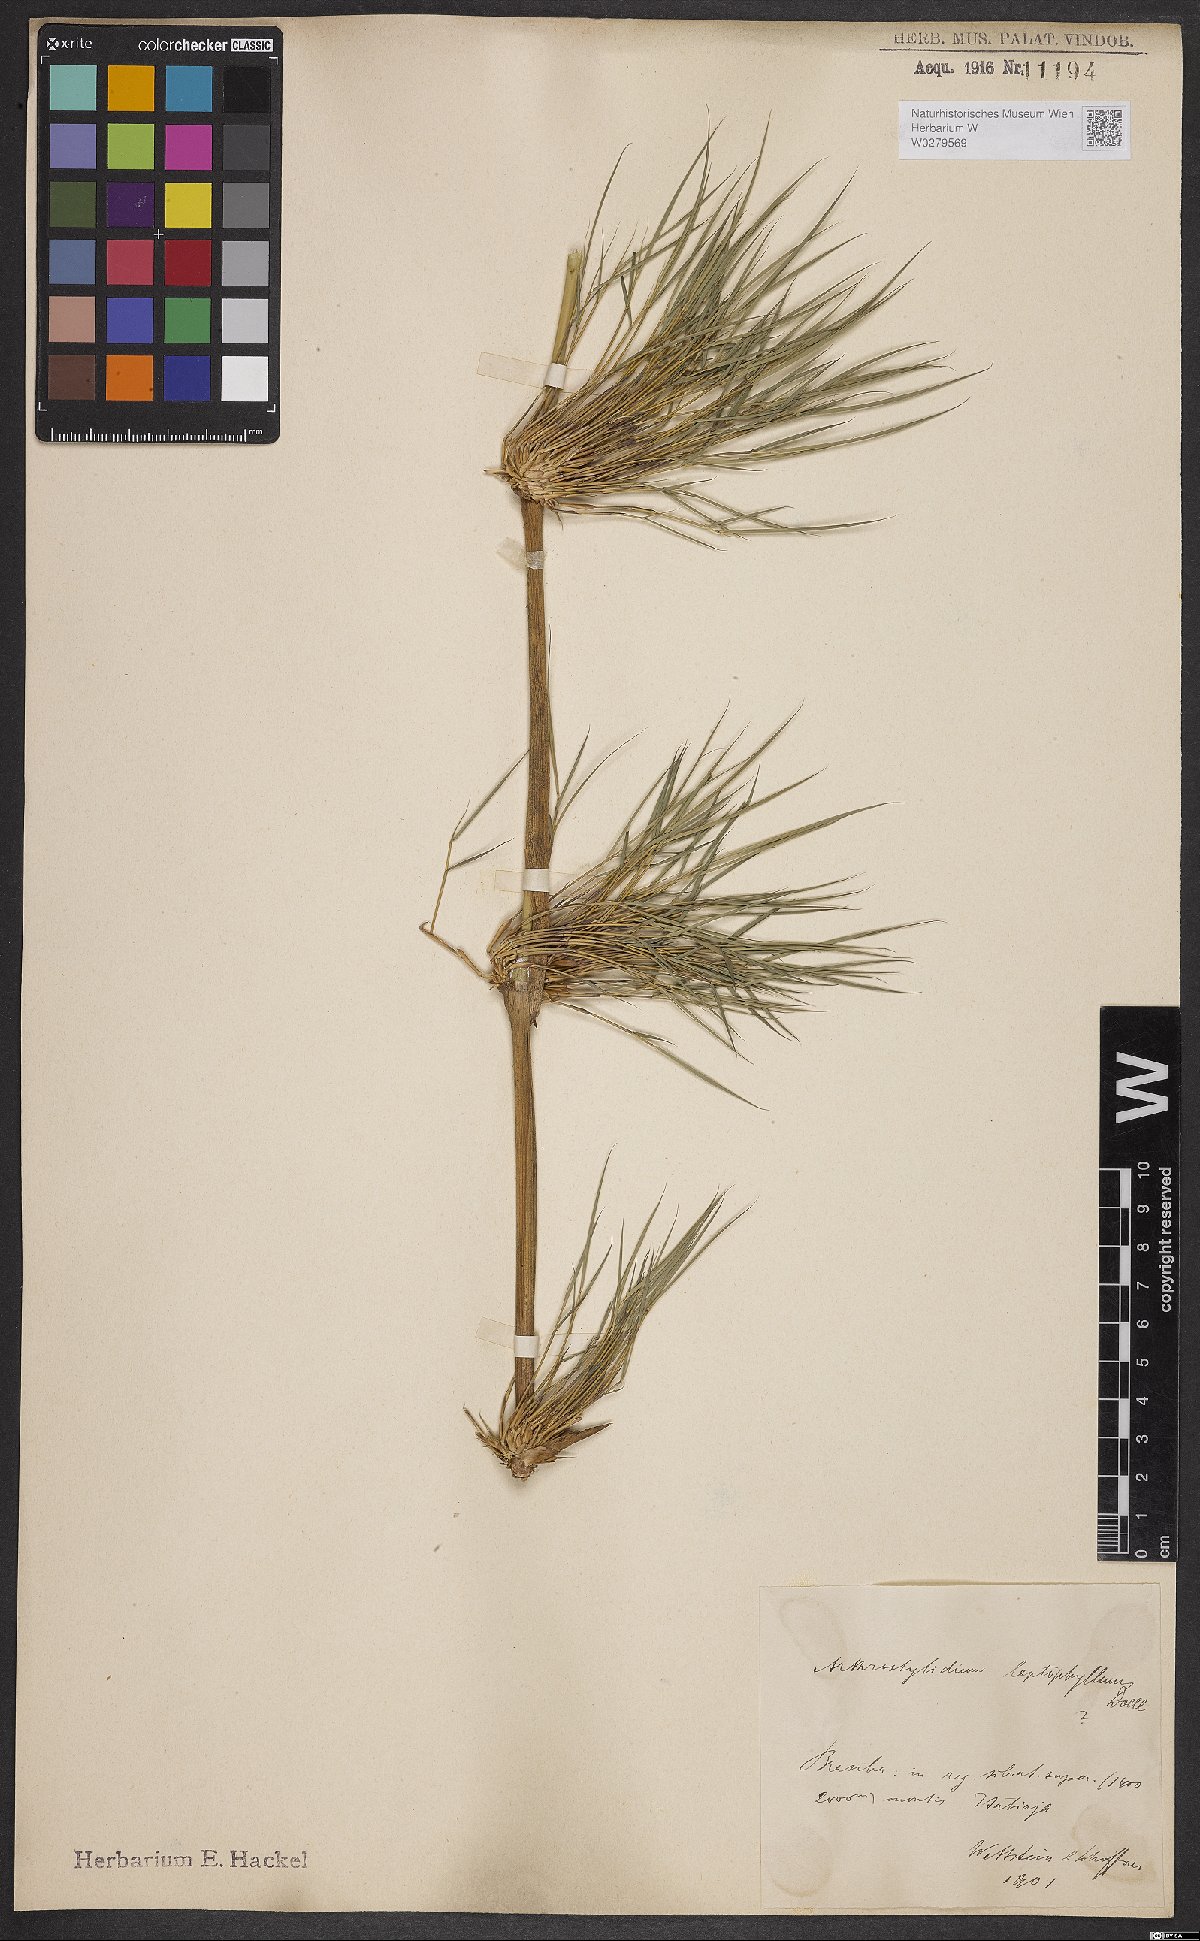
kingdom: Plantae
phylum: Tracheophyta
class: Liliopsida
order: Poales
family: Poaceae
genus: Chusquea
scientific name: Chusquea leptophylla
